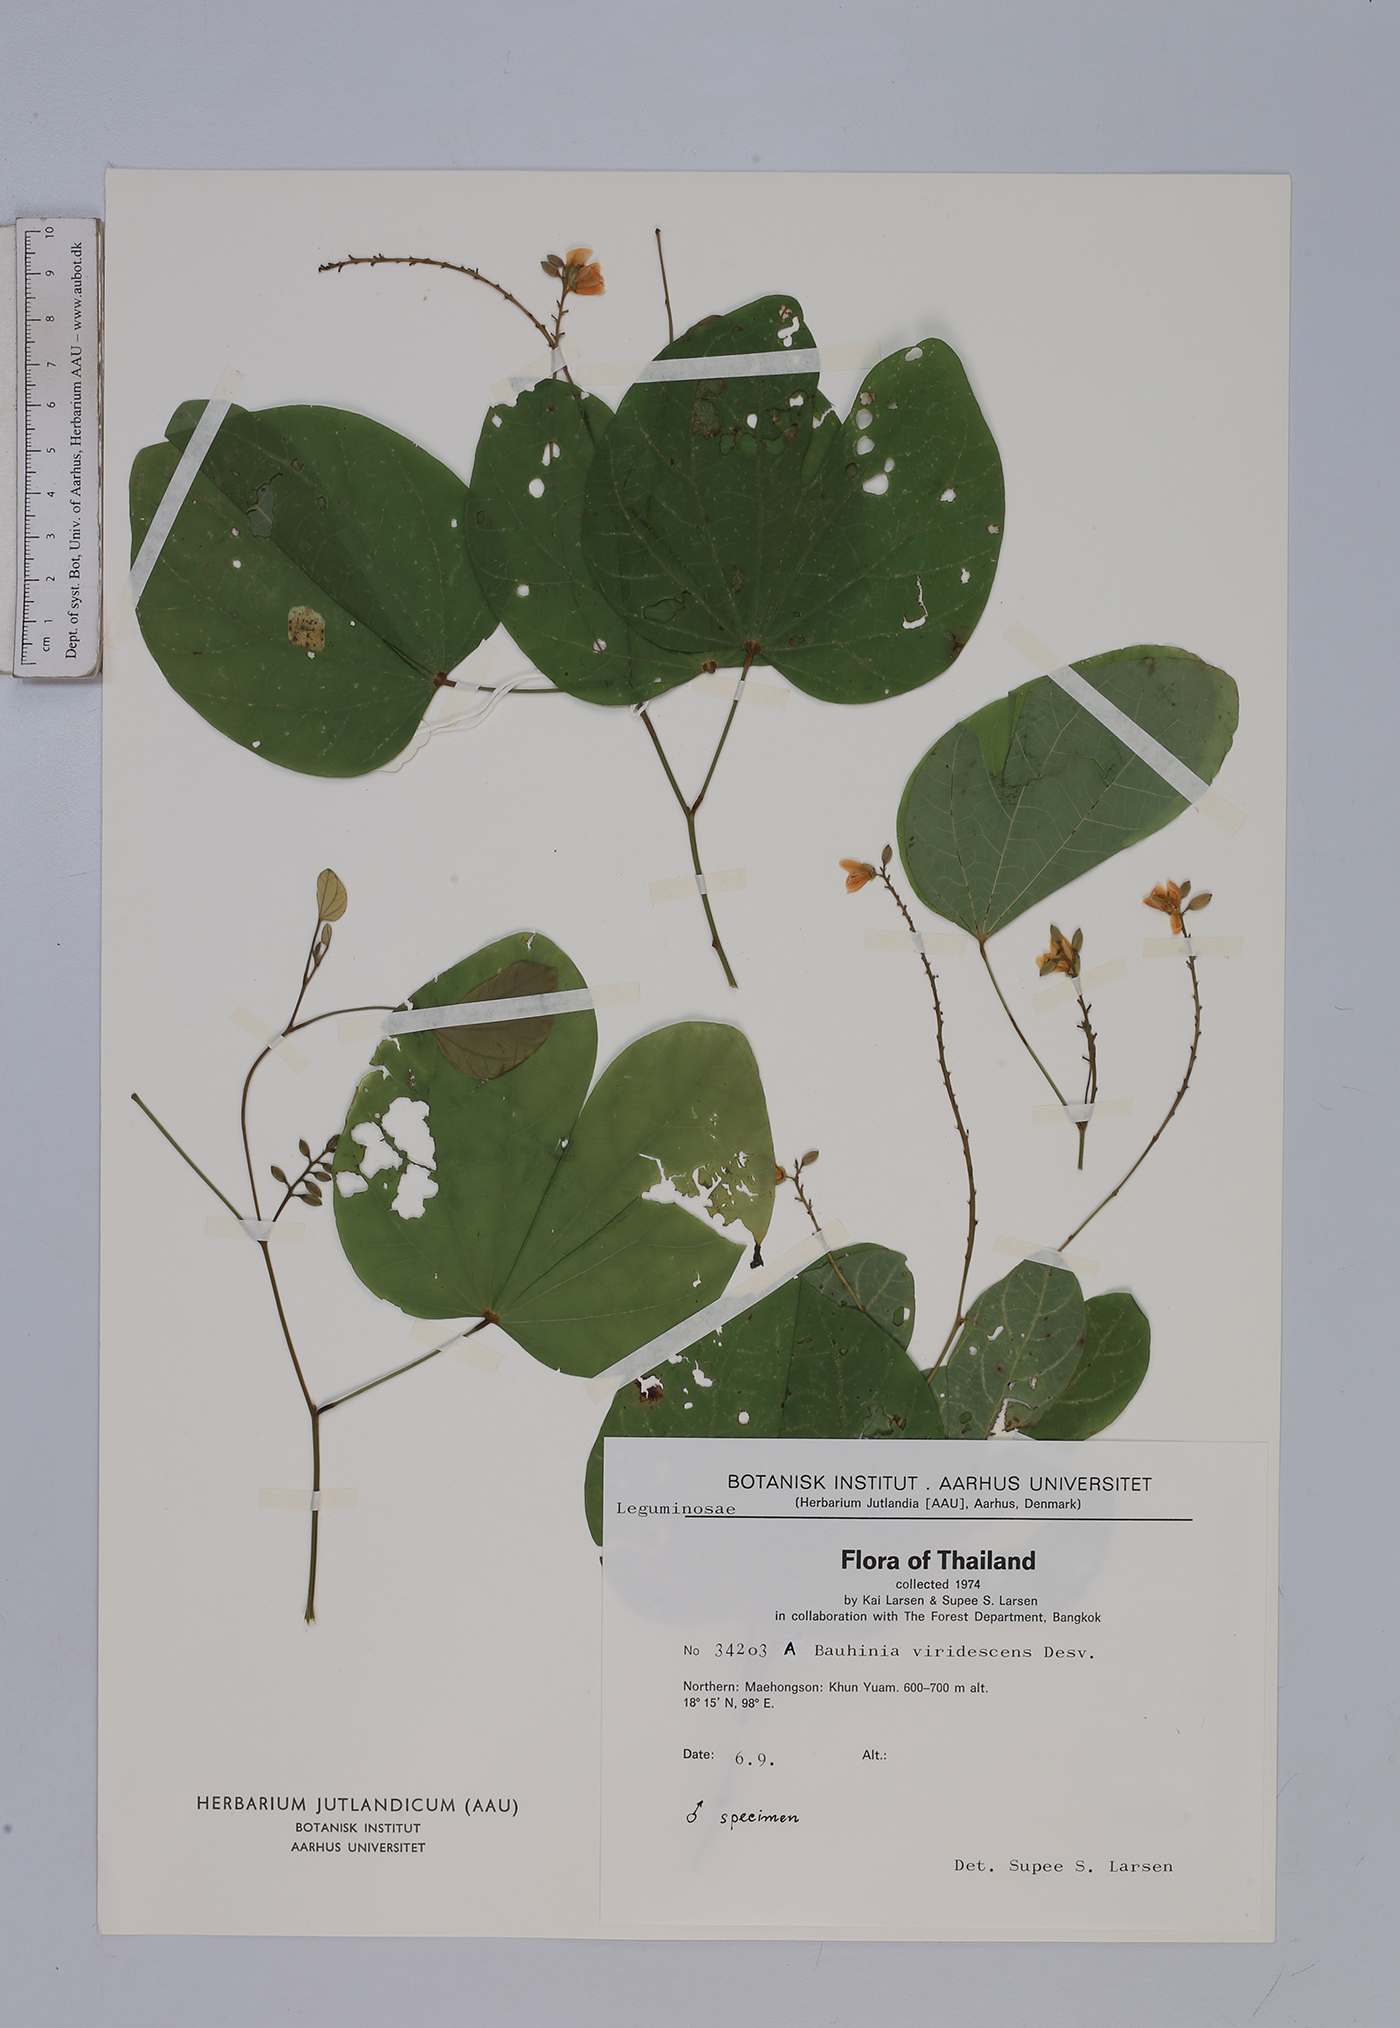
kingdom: Plantae
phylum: Tracheophyta
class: Magnoliopsida
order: Fabales
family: Fabaceae
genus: Bauhinia
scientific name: Bauhinia viridescens
